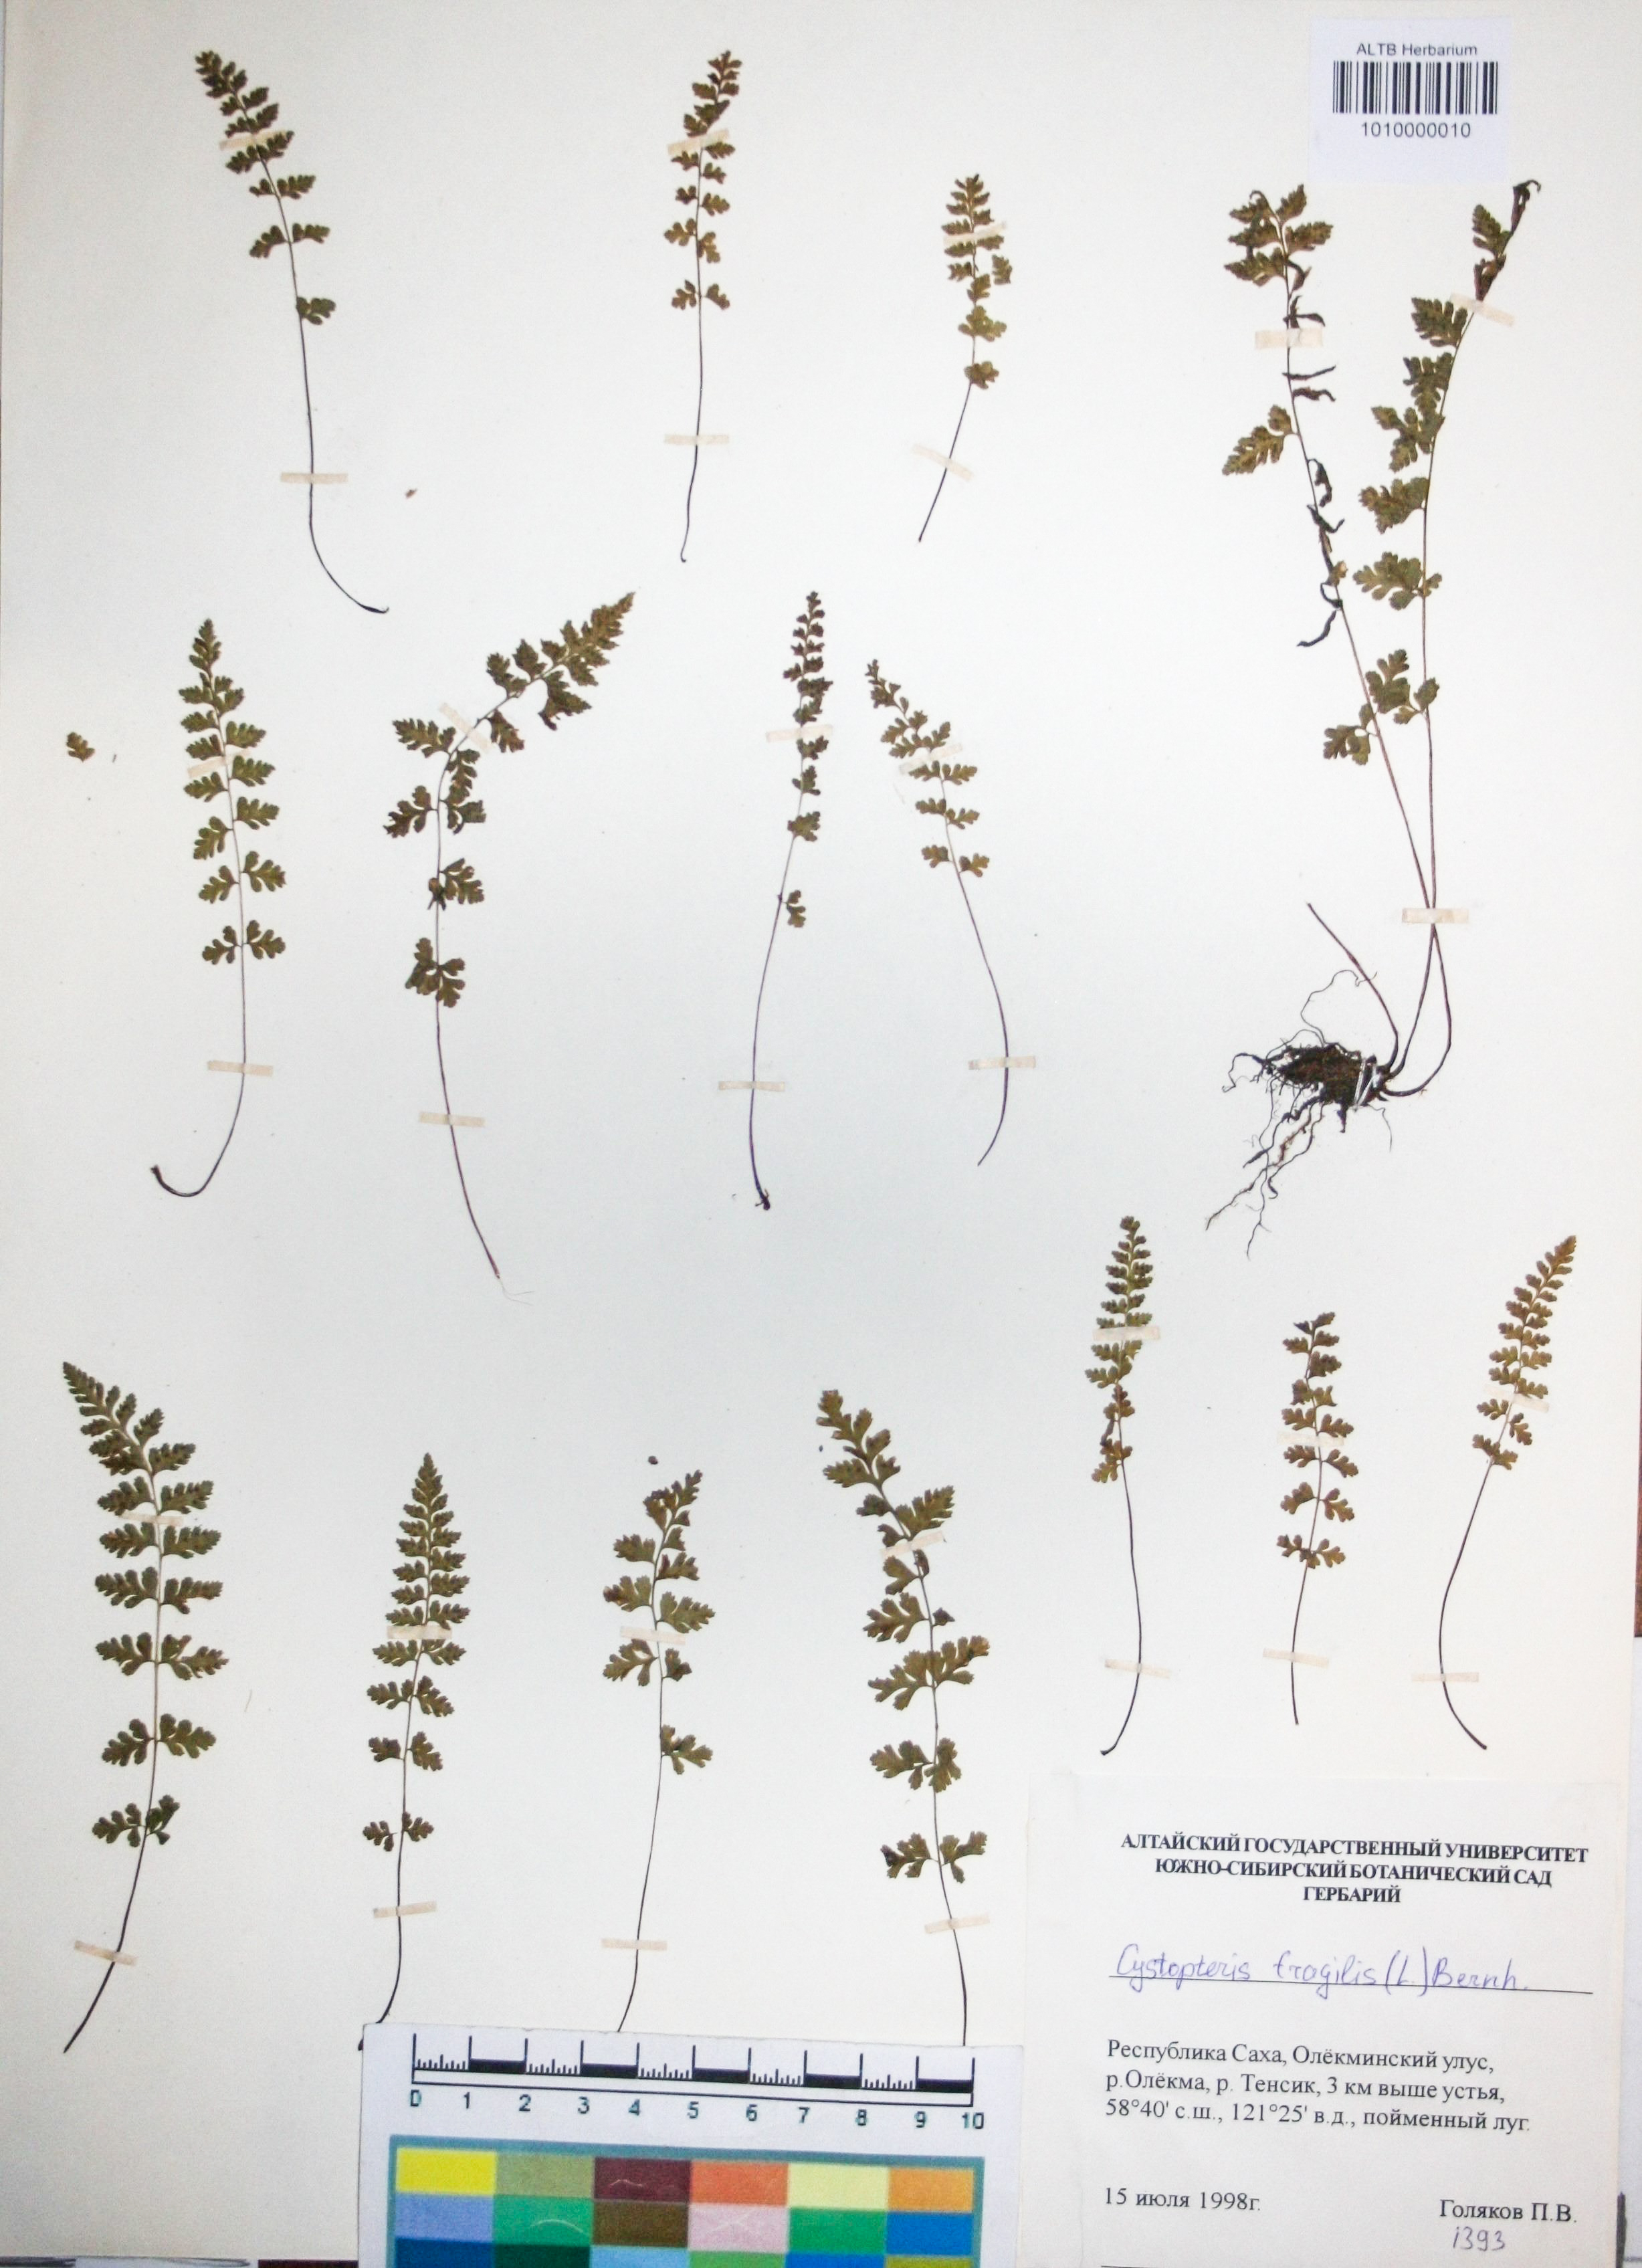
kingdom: Plantae
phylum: Tracheophyta
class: Polypodiopsida
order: Polypodiales
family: Cystopteridaceae
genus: Cystopteris
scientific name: Cystopteris fragilis
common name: Brittle bladder fern
